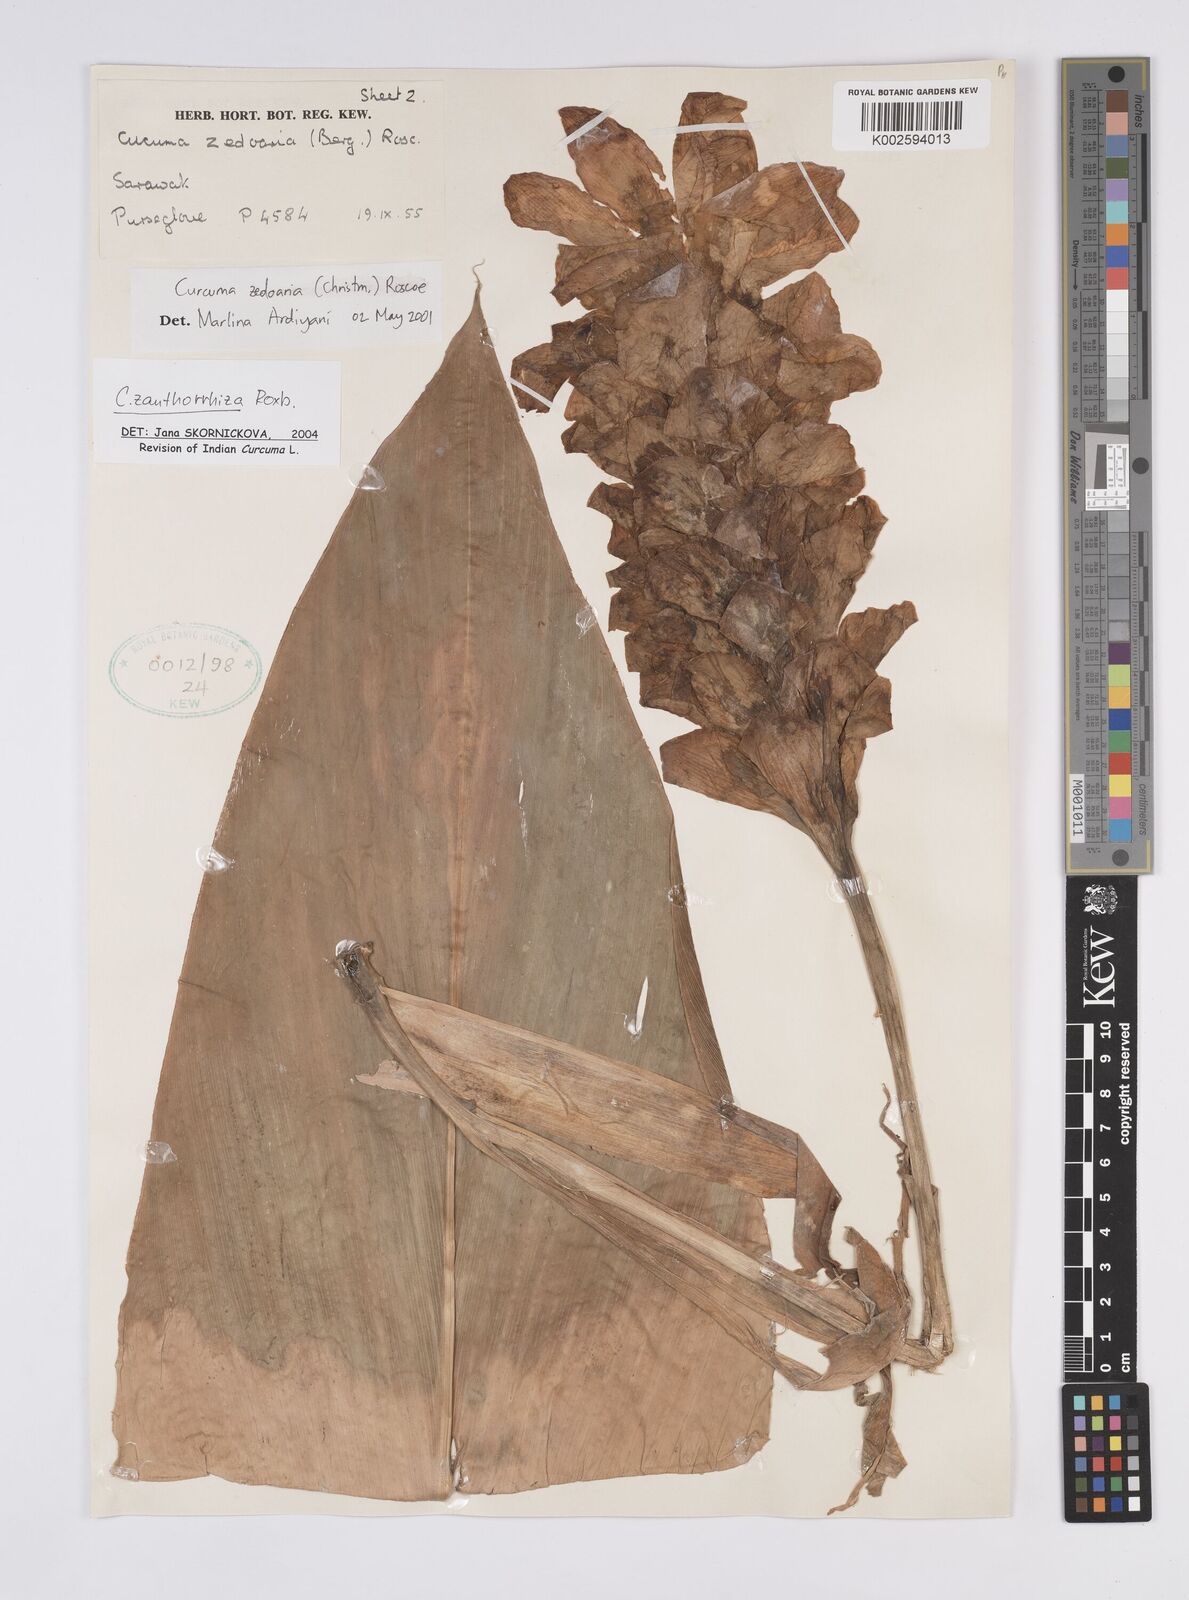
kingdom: Plantae
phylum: Tracheophyta
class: Liliopsida
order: Zingiberales
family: Zingiberaceae
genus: Curcuma
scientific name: Curcuma zanthorrhiza
